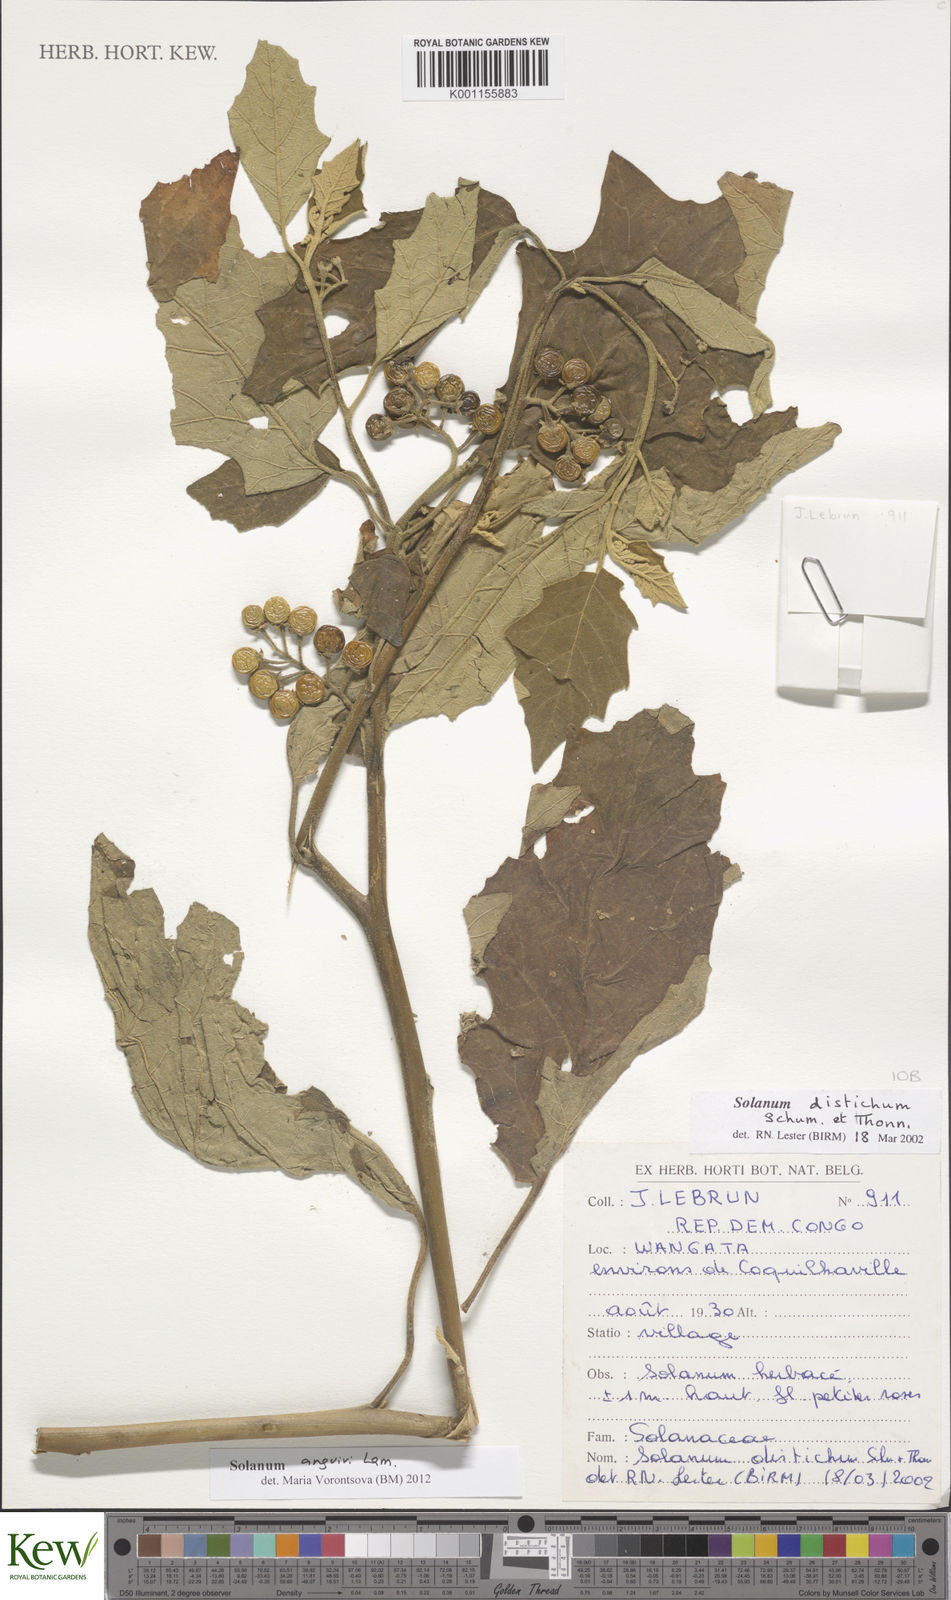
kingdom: Plantae
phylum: Tracheophyta
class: Magnoliopsida
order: Solanales
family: Solanaceae
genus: Solanum
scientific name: Solanum anguivi
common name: Forest bitterberry
